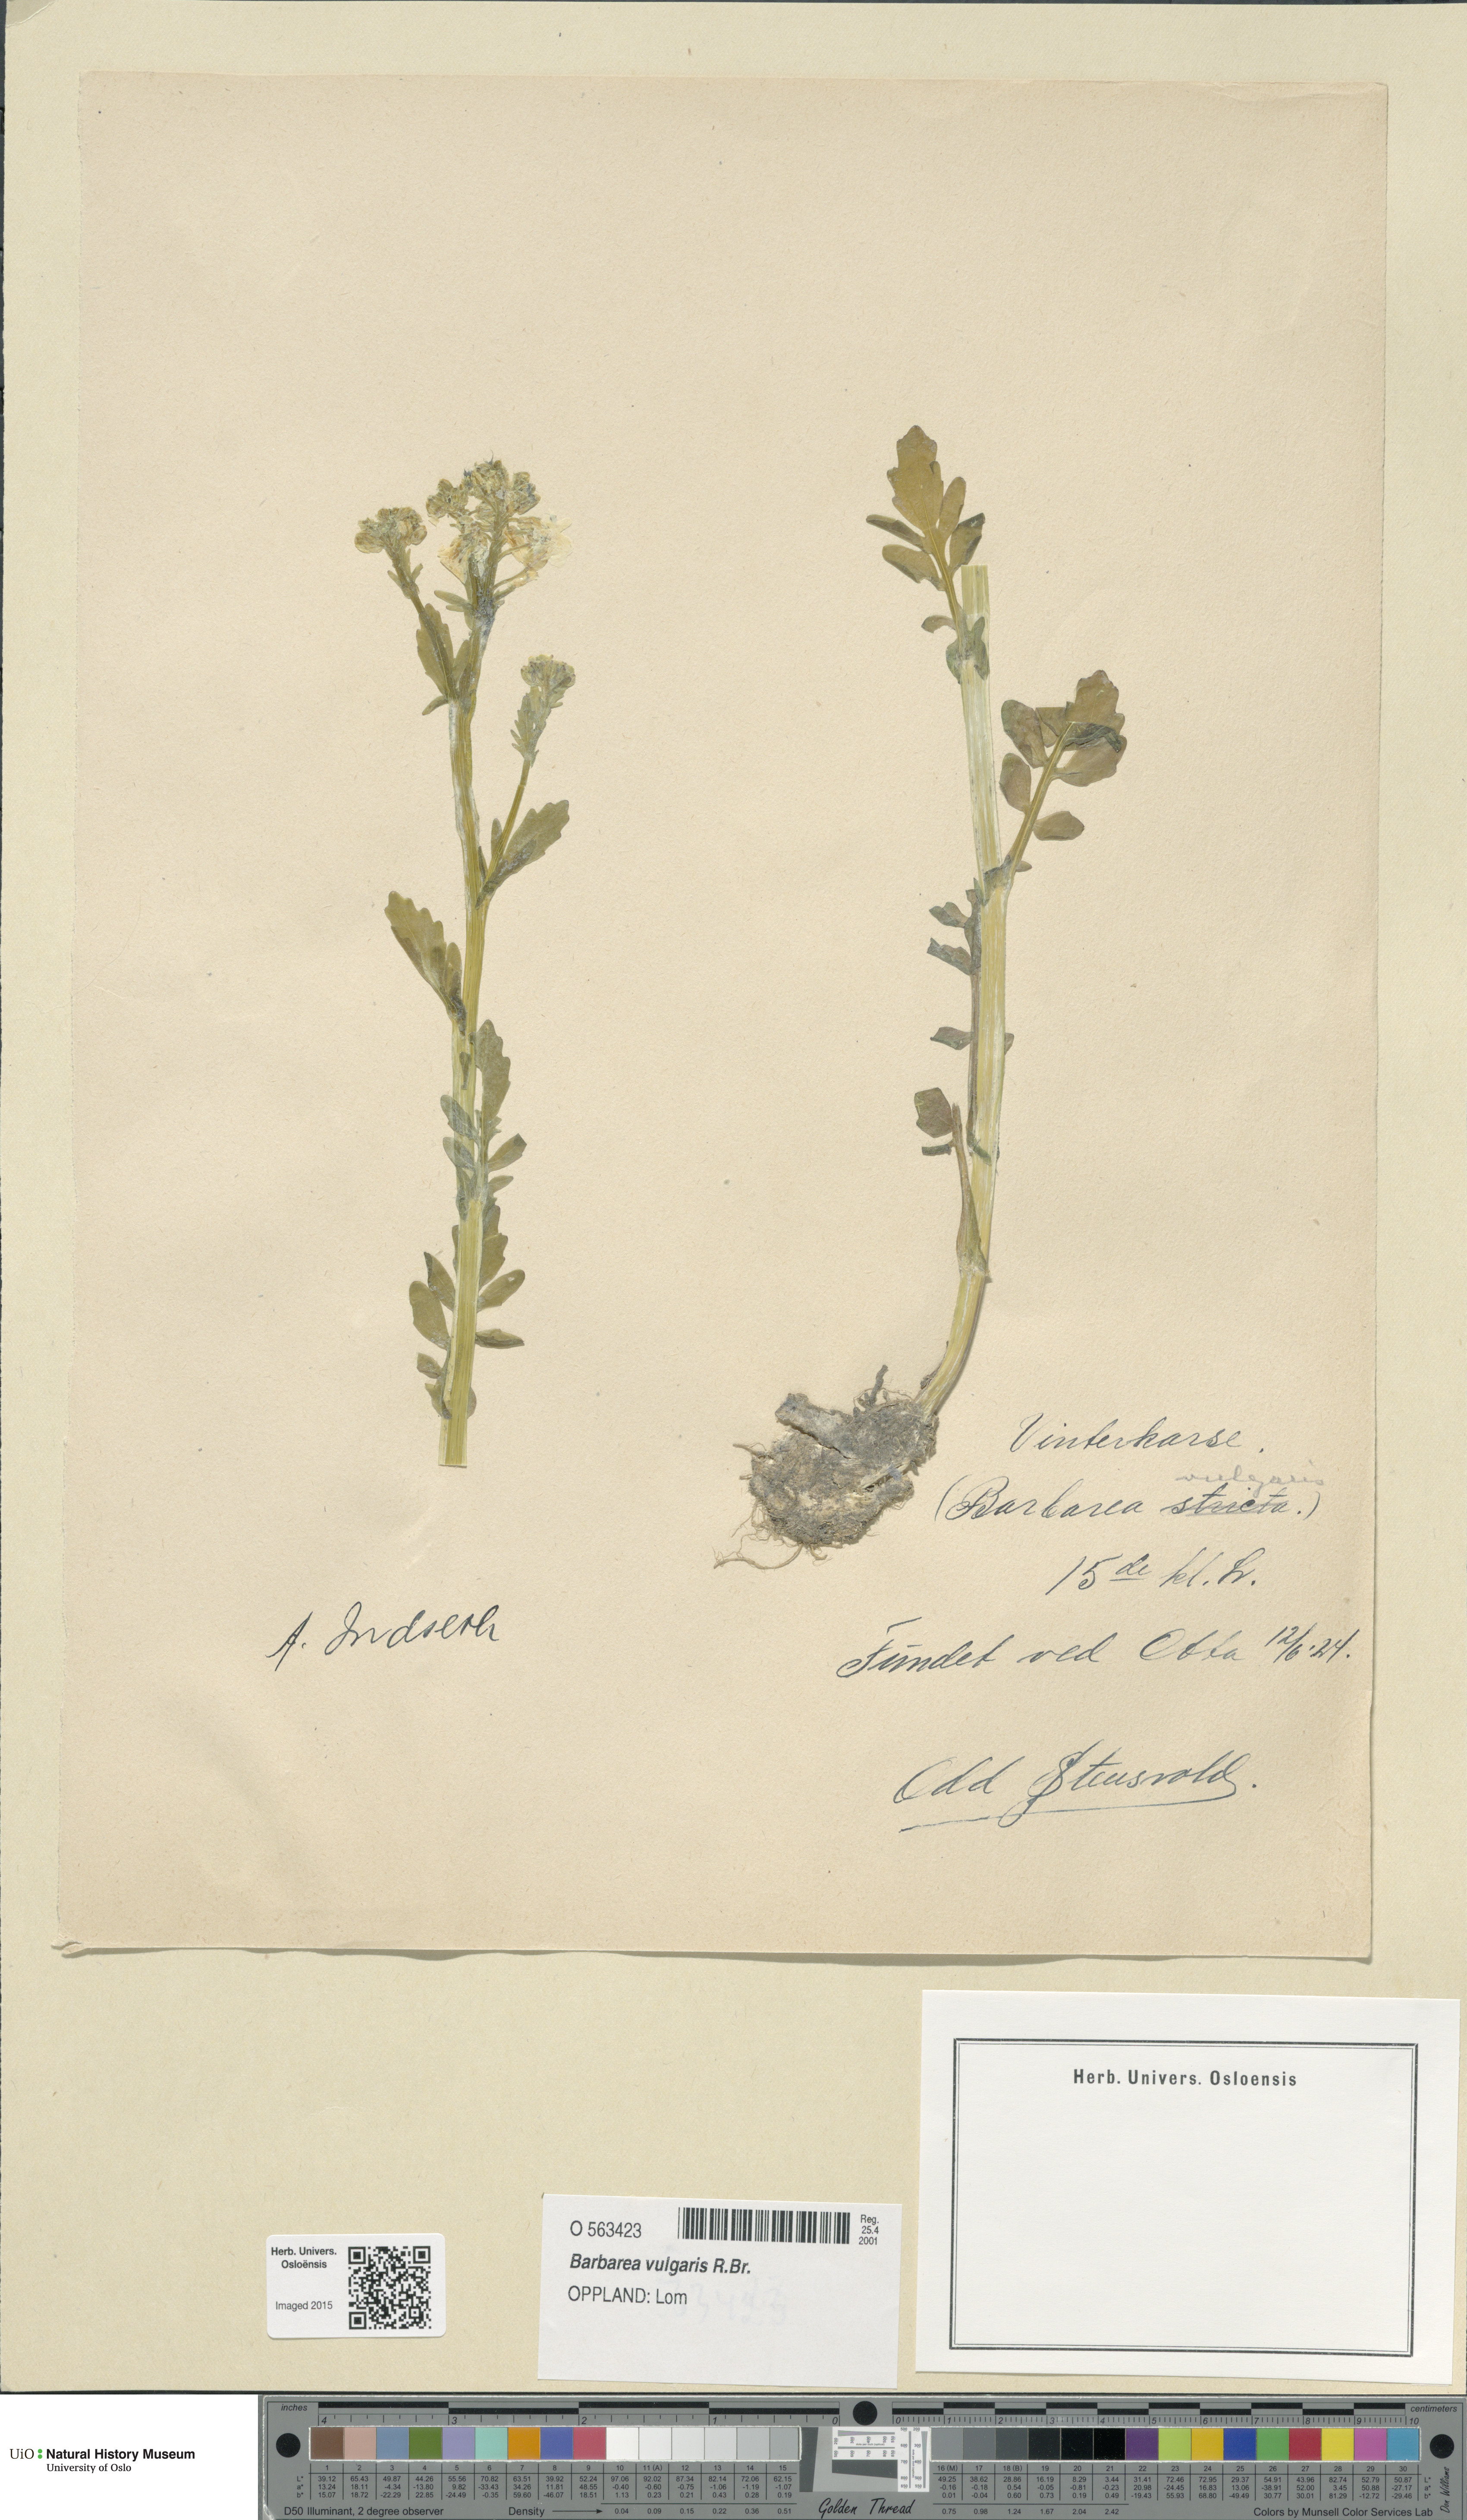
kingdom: Plantae
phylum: Tracheophyta
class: Magnoliopsida
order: Brassicales
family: Brassicaceae
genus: Barbarea
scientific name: Barbarea vulgaris
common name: Cressy-greens
